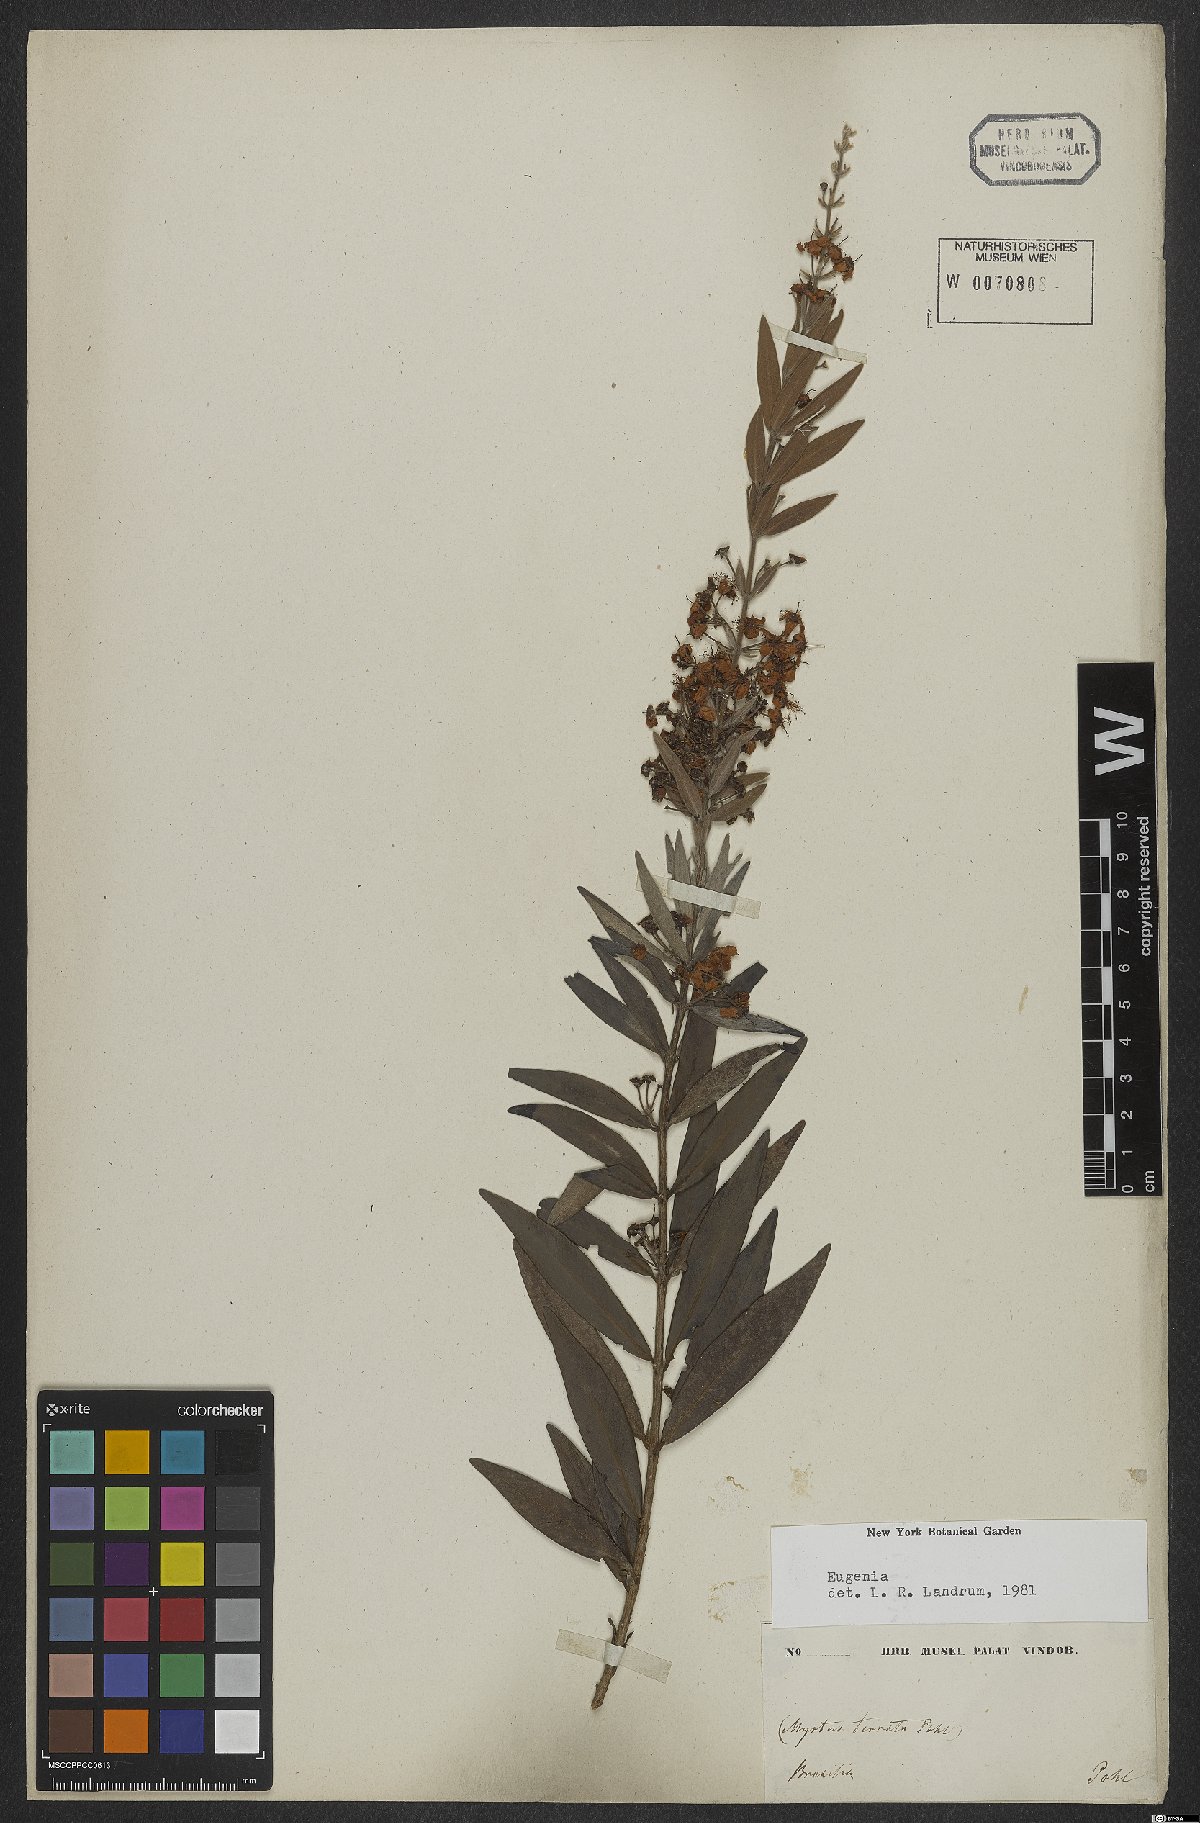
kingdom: Plantae
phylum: Tracheophyta
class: Magnoliopsida
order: Myrtales
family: Myrtaceae
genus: Eugenia
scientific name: Eugenia
